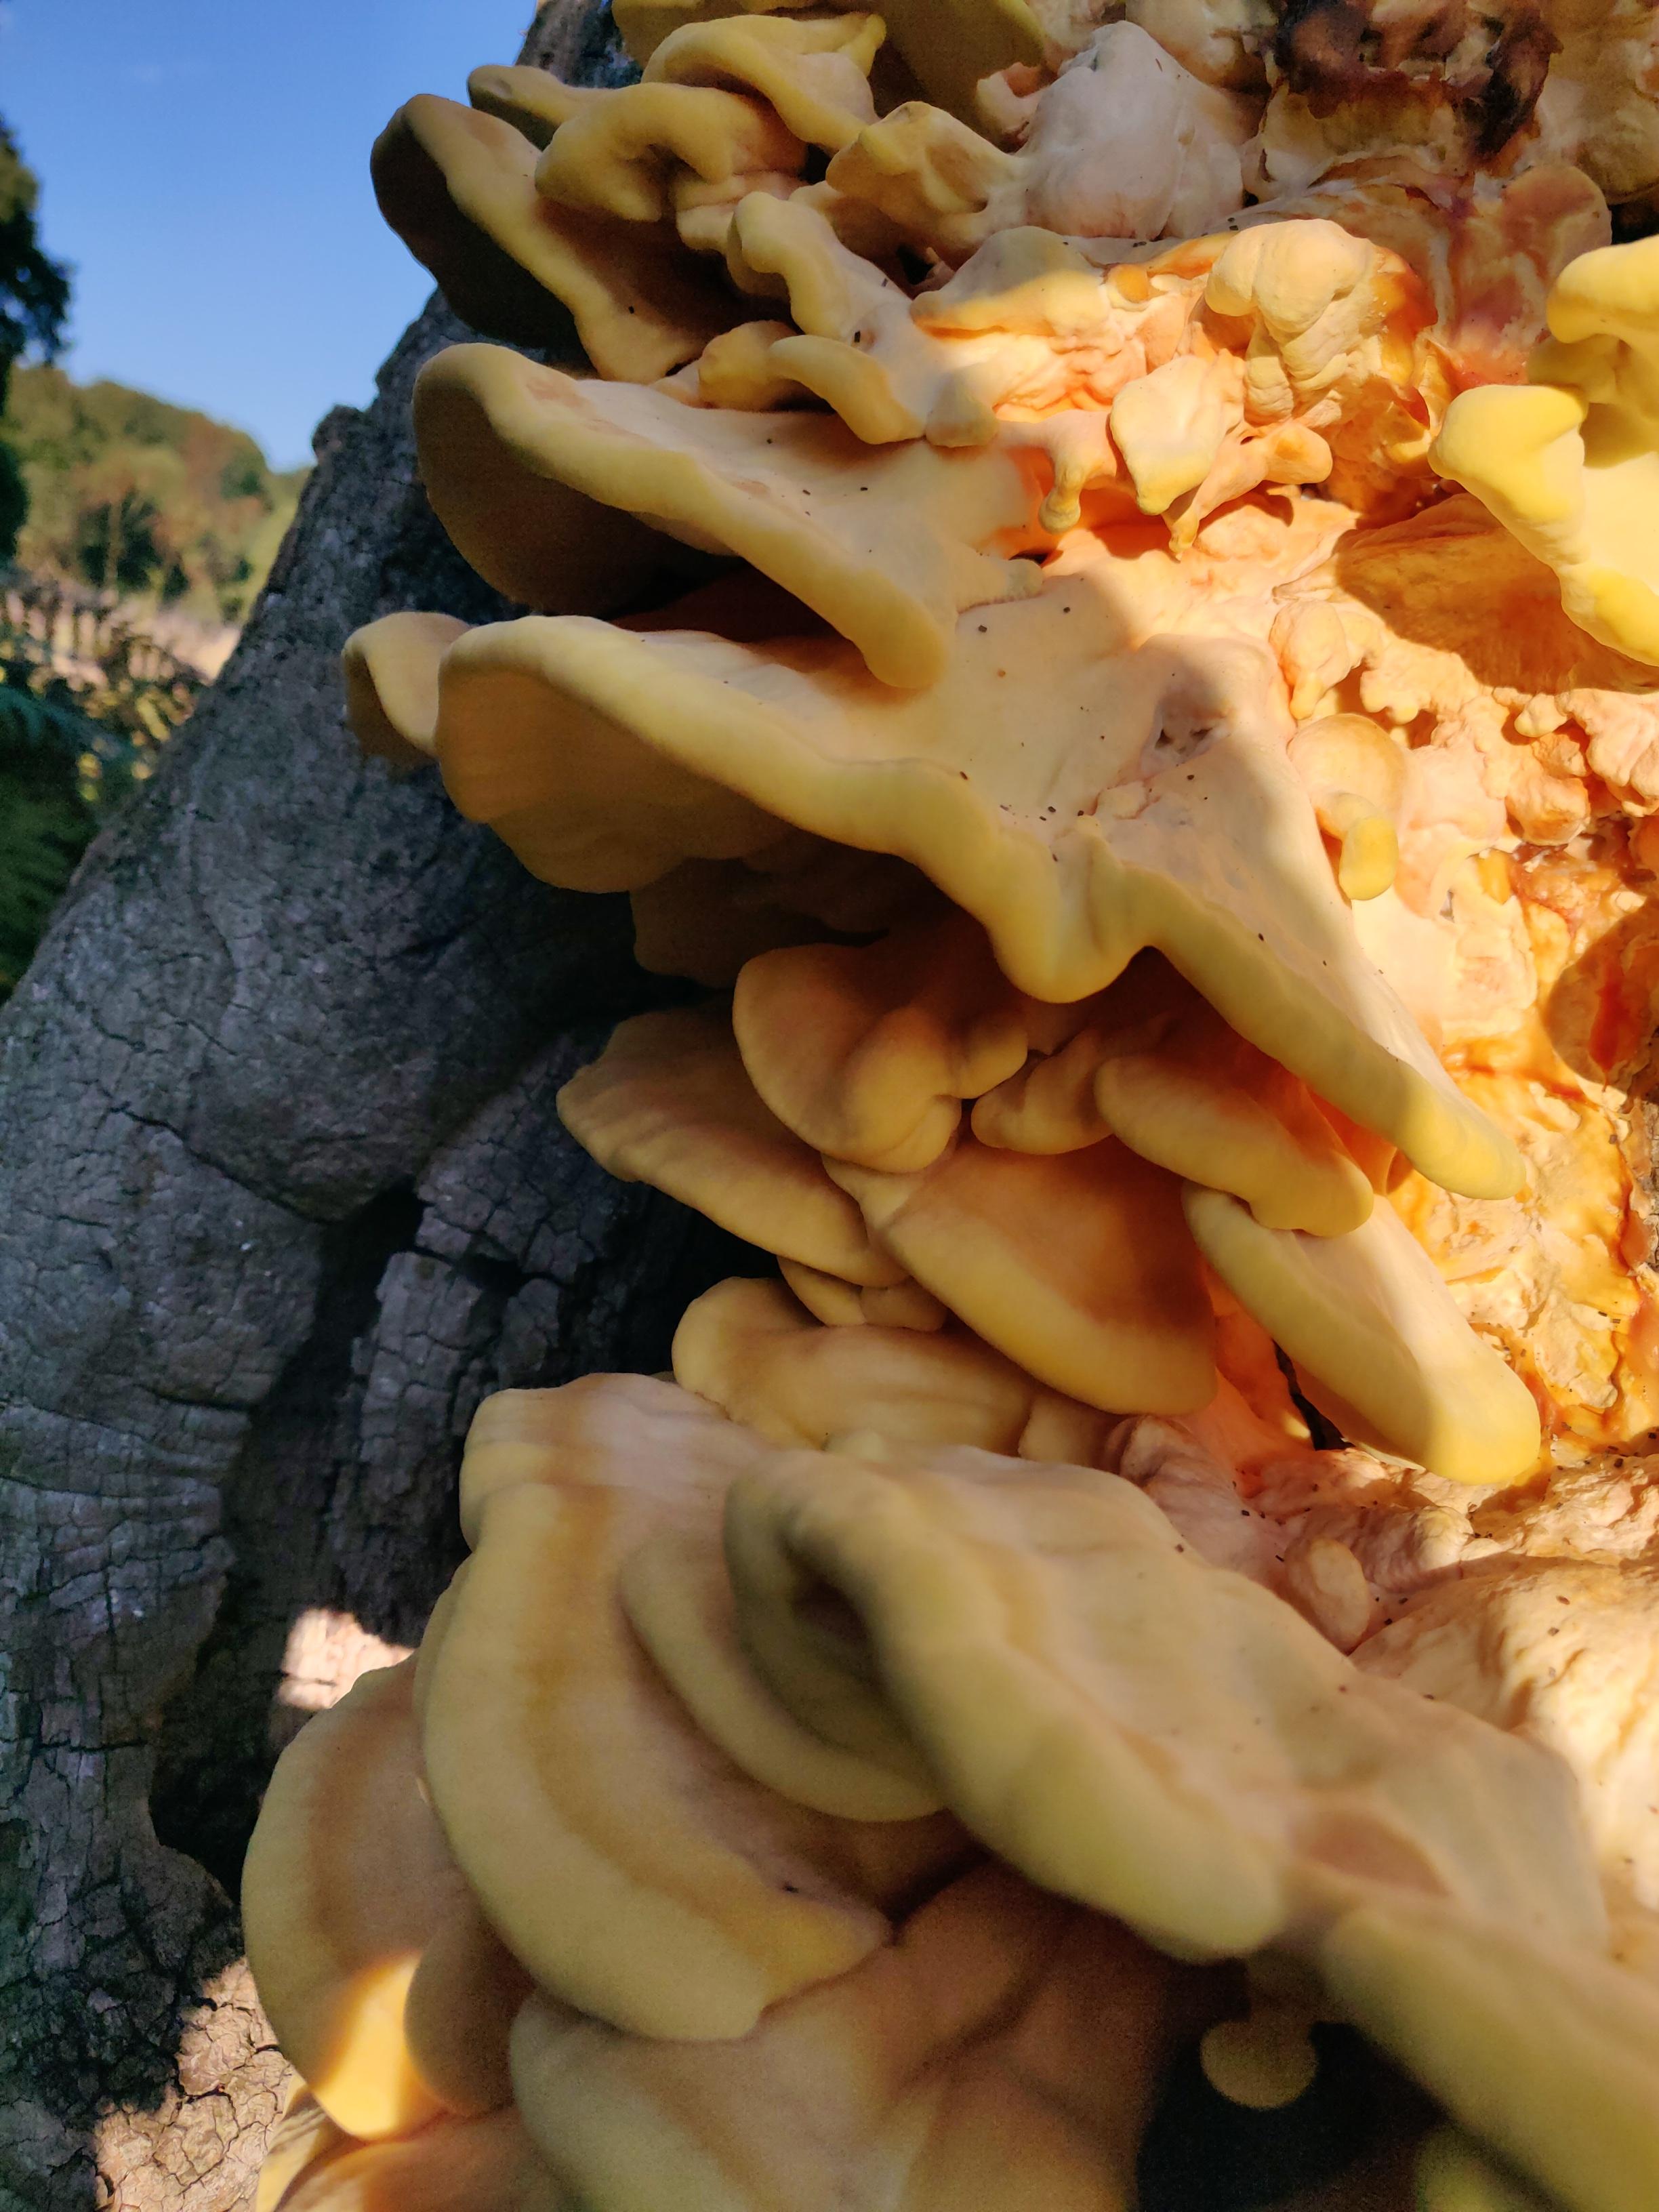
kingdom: Fungi
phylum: Basidiomycota
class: Agaricomycetes
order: Polyporales
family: Laetiporaceae
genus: Laetiporus
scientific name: Laetiporus sulphureus
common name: svovlporesvamp
